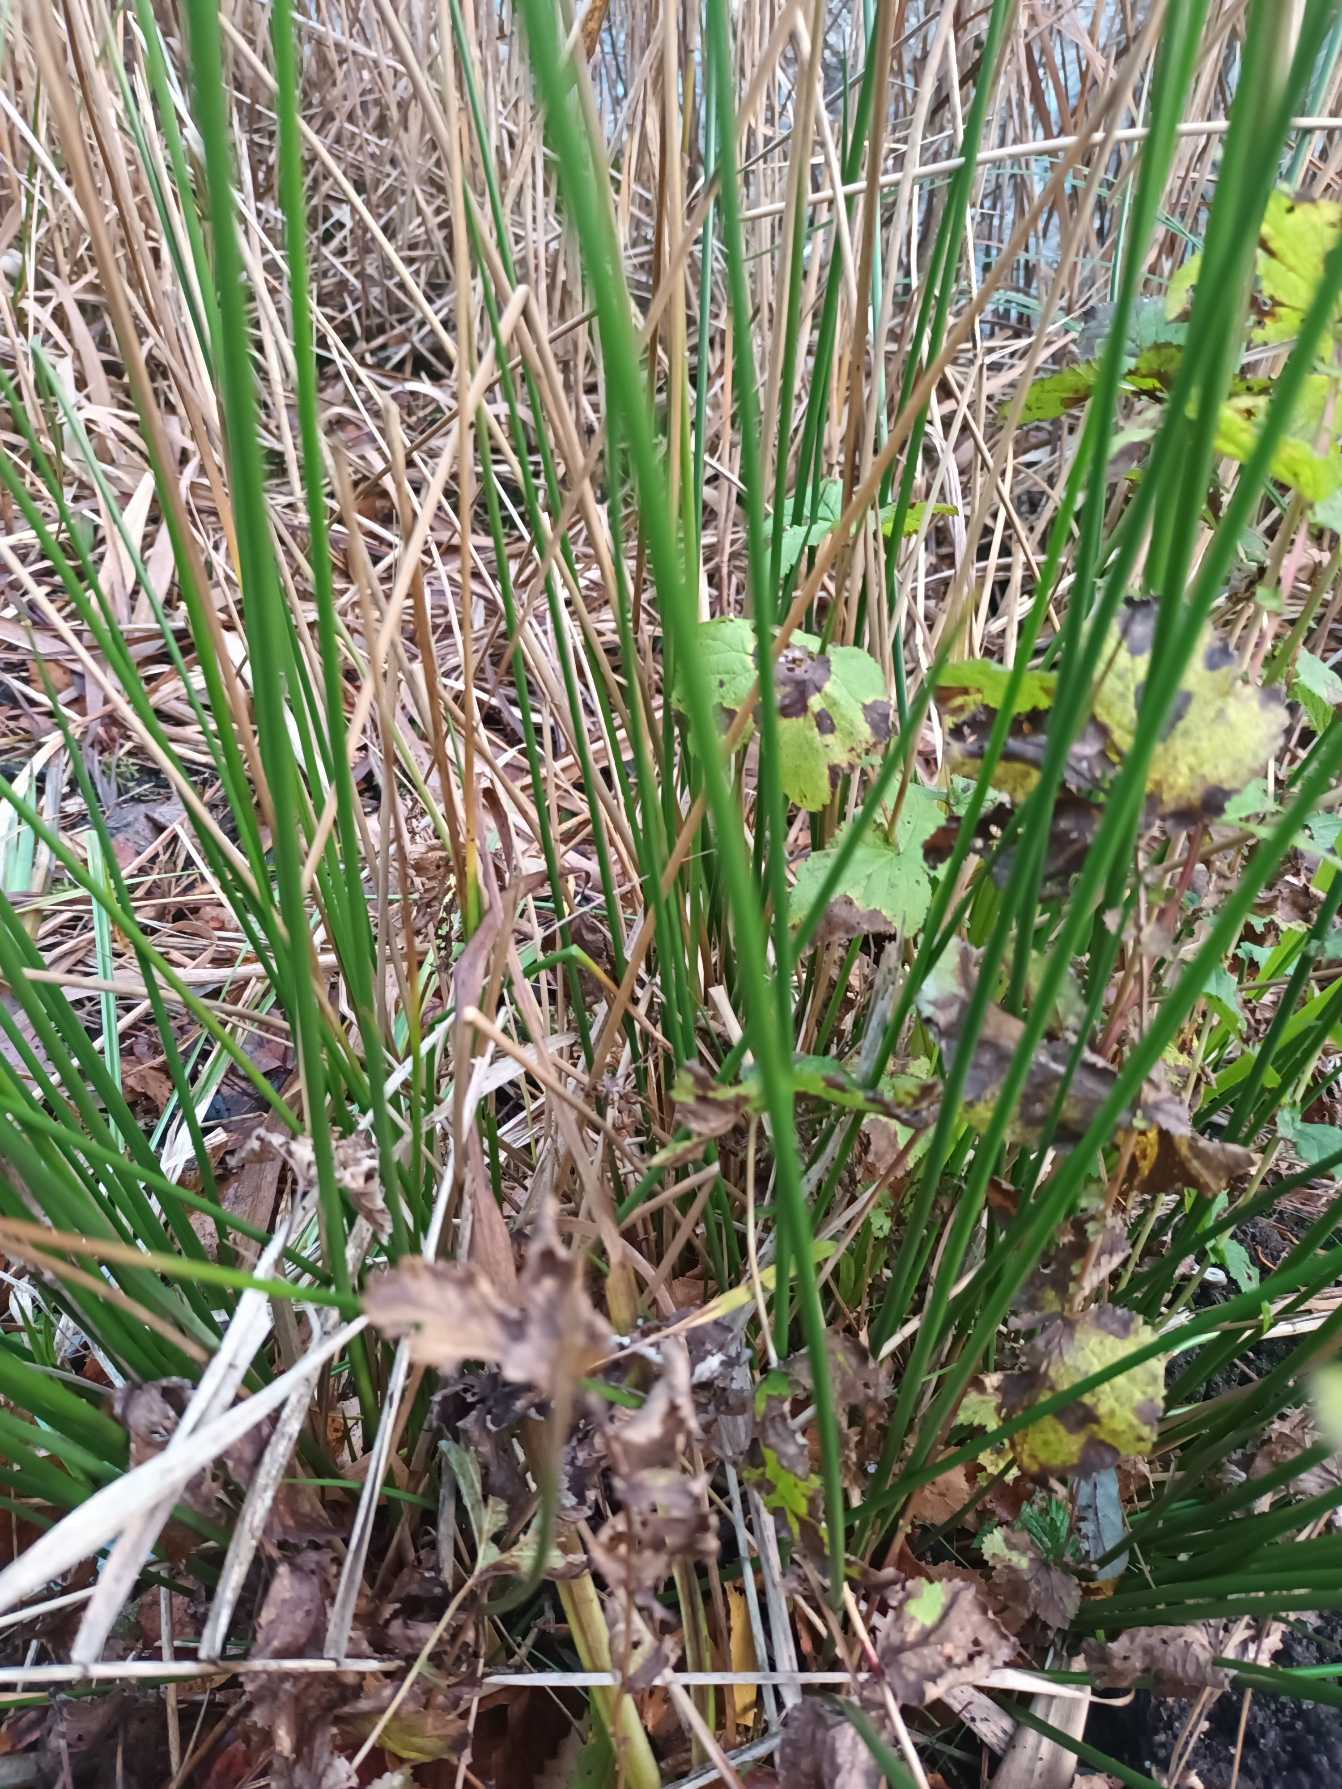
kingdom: Plantae
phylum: Tracheophyta
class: Liliopsida
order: Poales
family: Juncaceae
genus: Juncus
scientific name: Juncus effusus
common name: Lyse-siv
